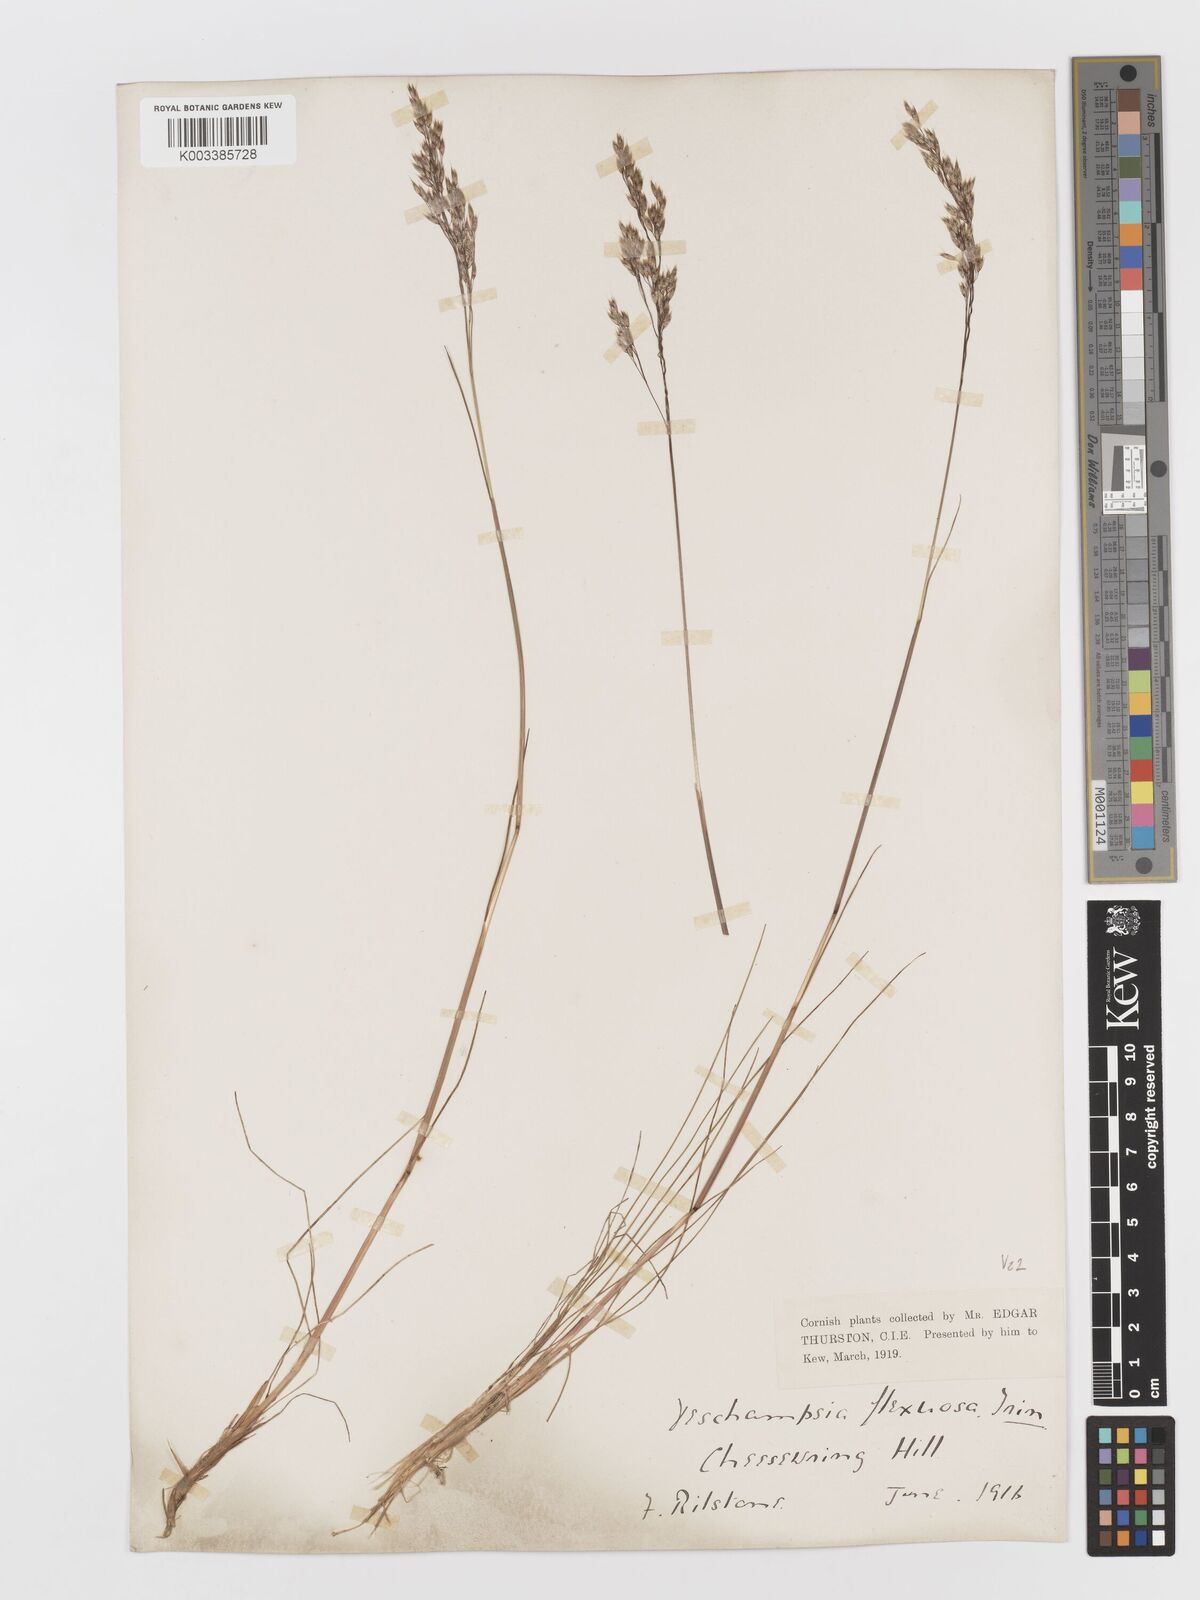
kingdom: Plantae
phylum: Tracheophyta
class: Liliopsida
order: Poales
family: Poaceae
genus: Avenella
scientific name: Avenella flexuosa
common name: Wavy hairgrass
